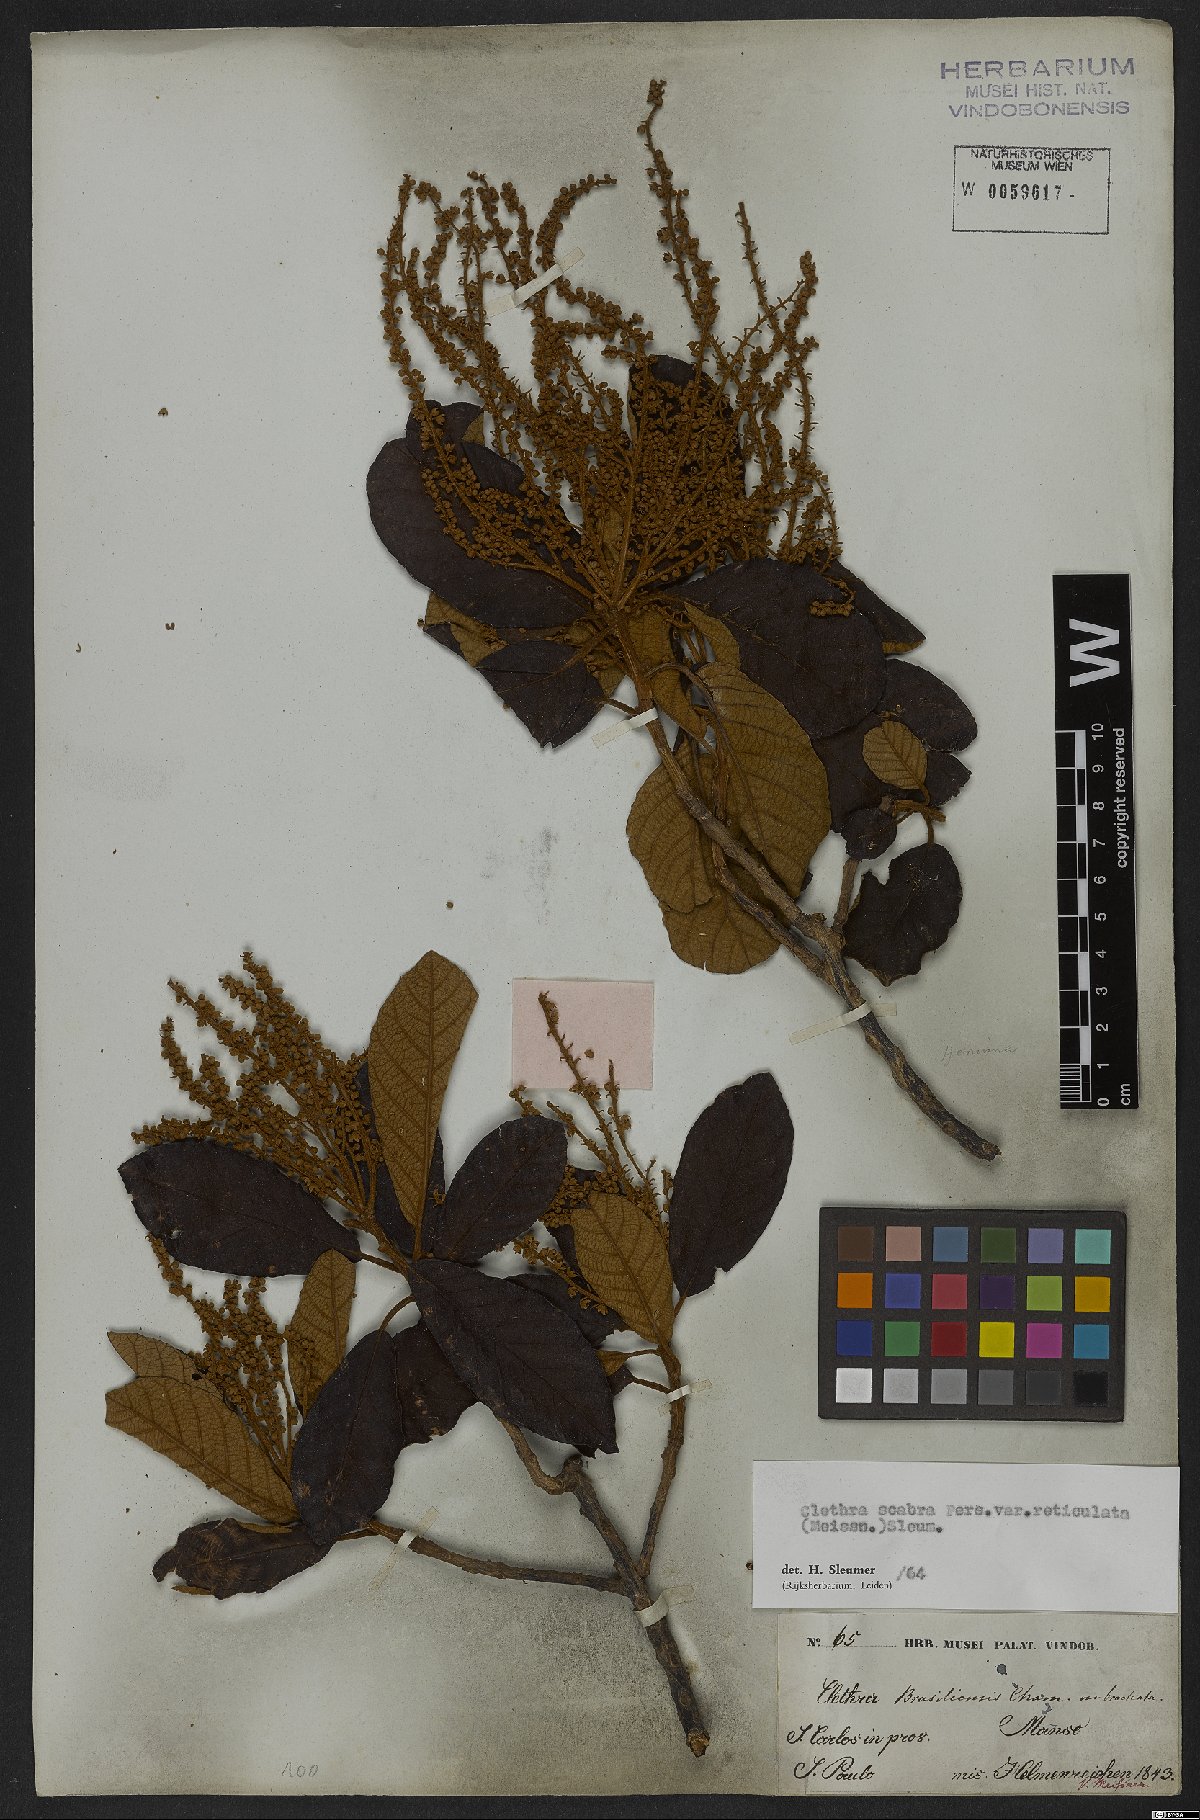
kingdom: Plantae
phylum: Tracheophyta
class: Magnoliopsida
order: Ericales
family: Clethraceae
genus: Clethra
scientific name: Clethra scabra
